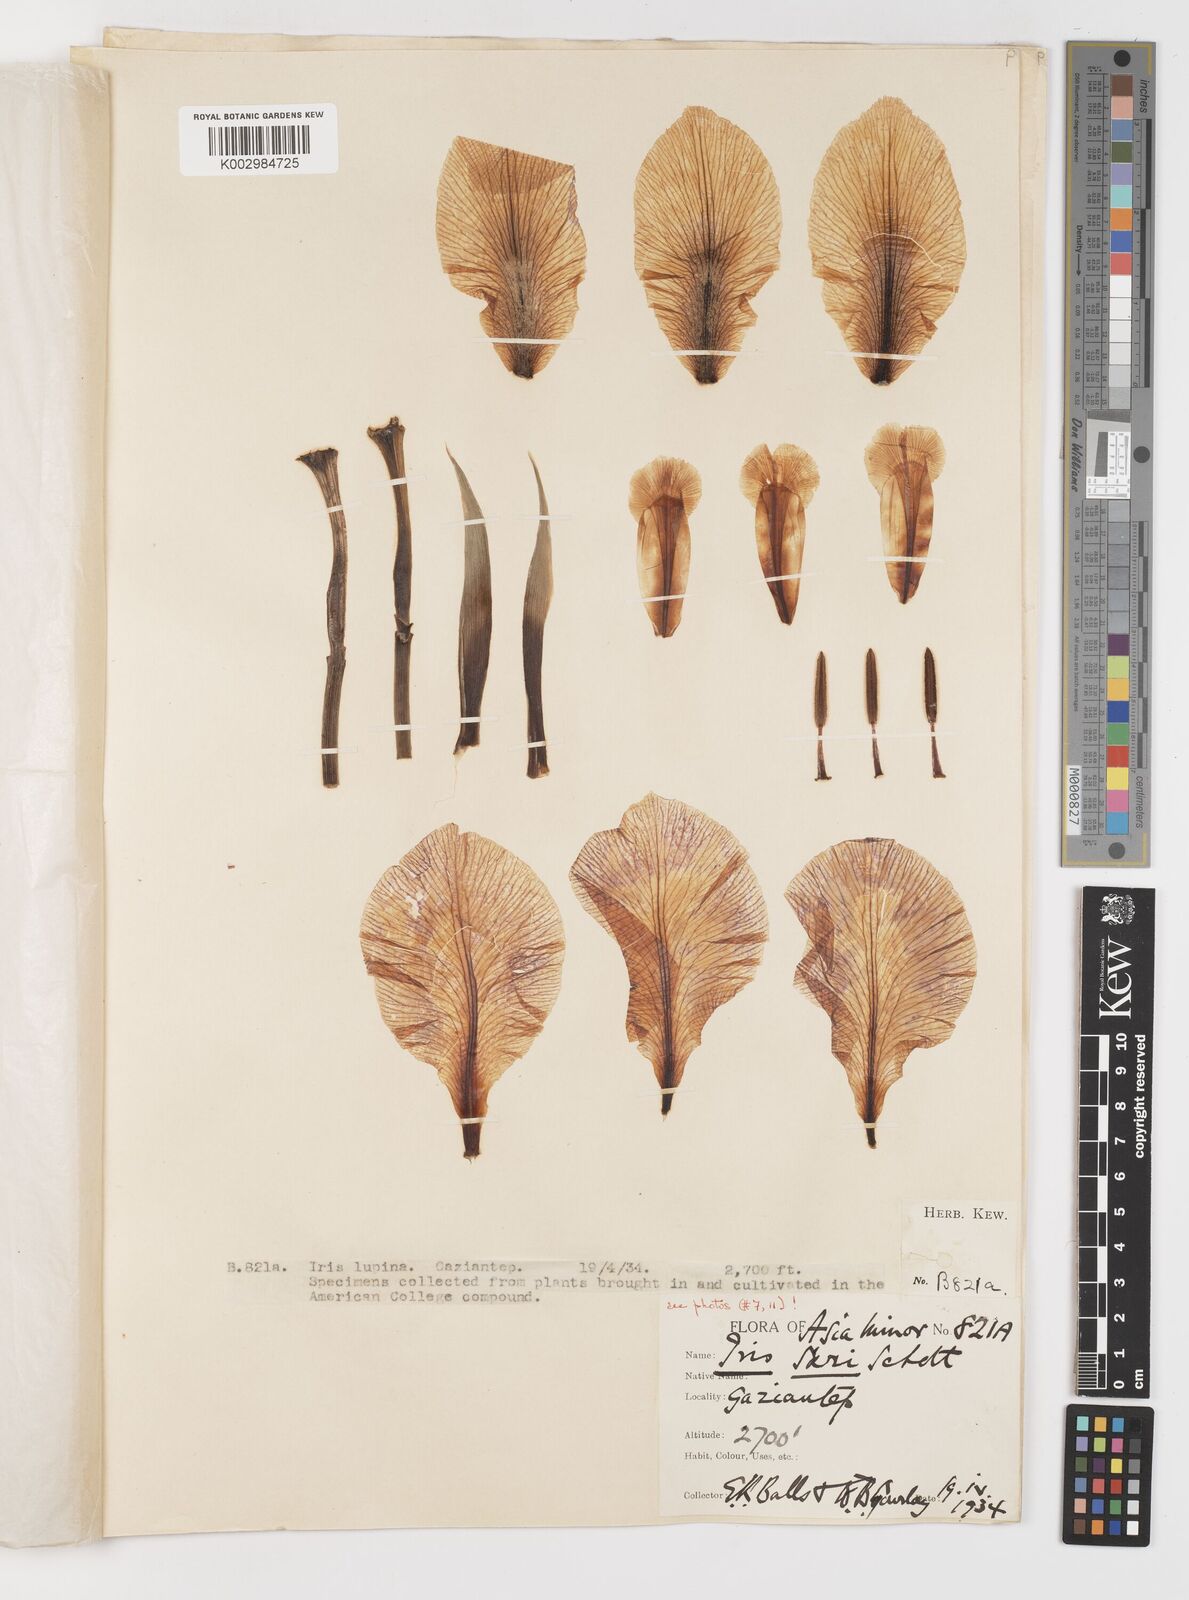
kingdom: Plantae
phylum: Tracheophyta
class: Liliopsida
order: Asparagales
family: Iridaceae
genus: Iris
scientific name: Iris sari
